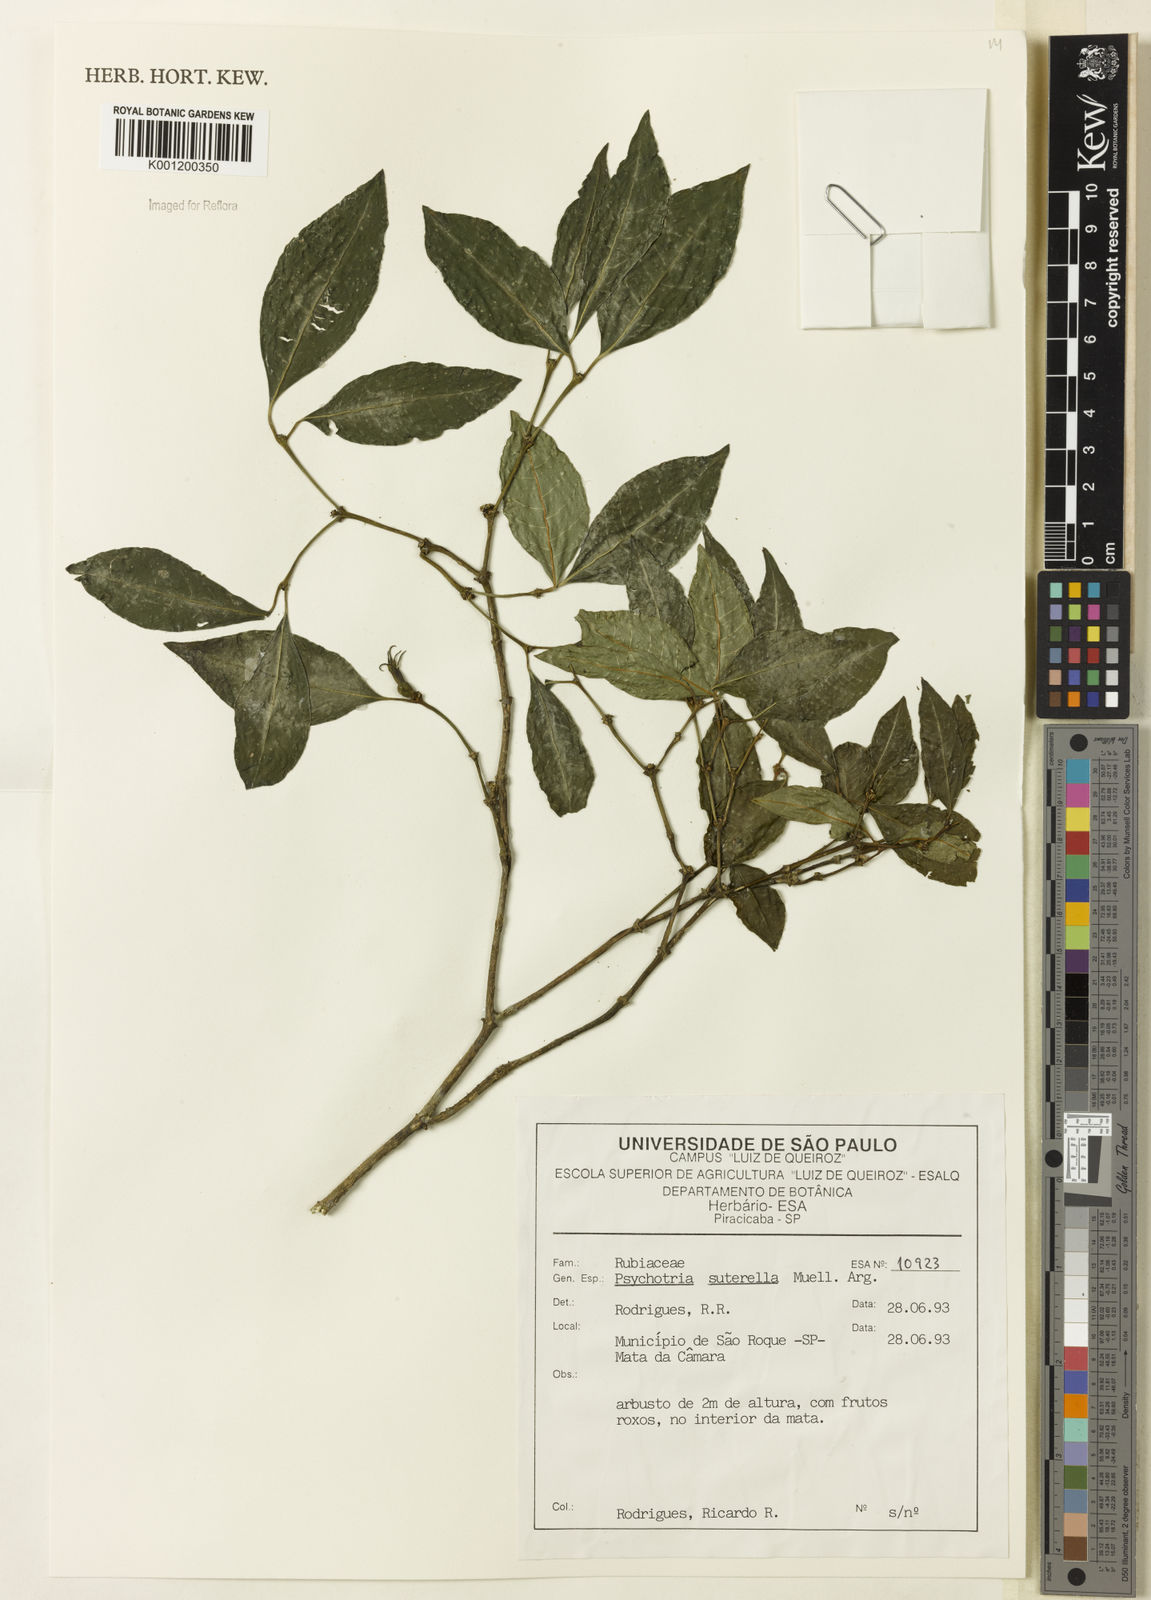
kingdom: Plantae
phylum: Tracheophyta
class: Magnoliopsida
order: Gentianales
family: Rubiaceae
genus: Psychotria
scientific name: Psychotria
